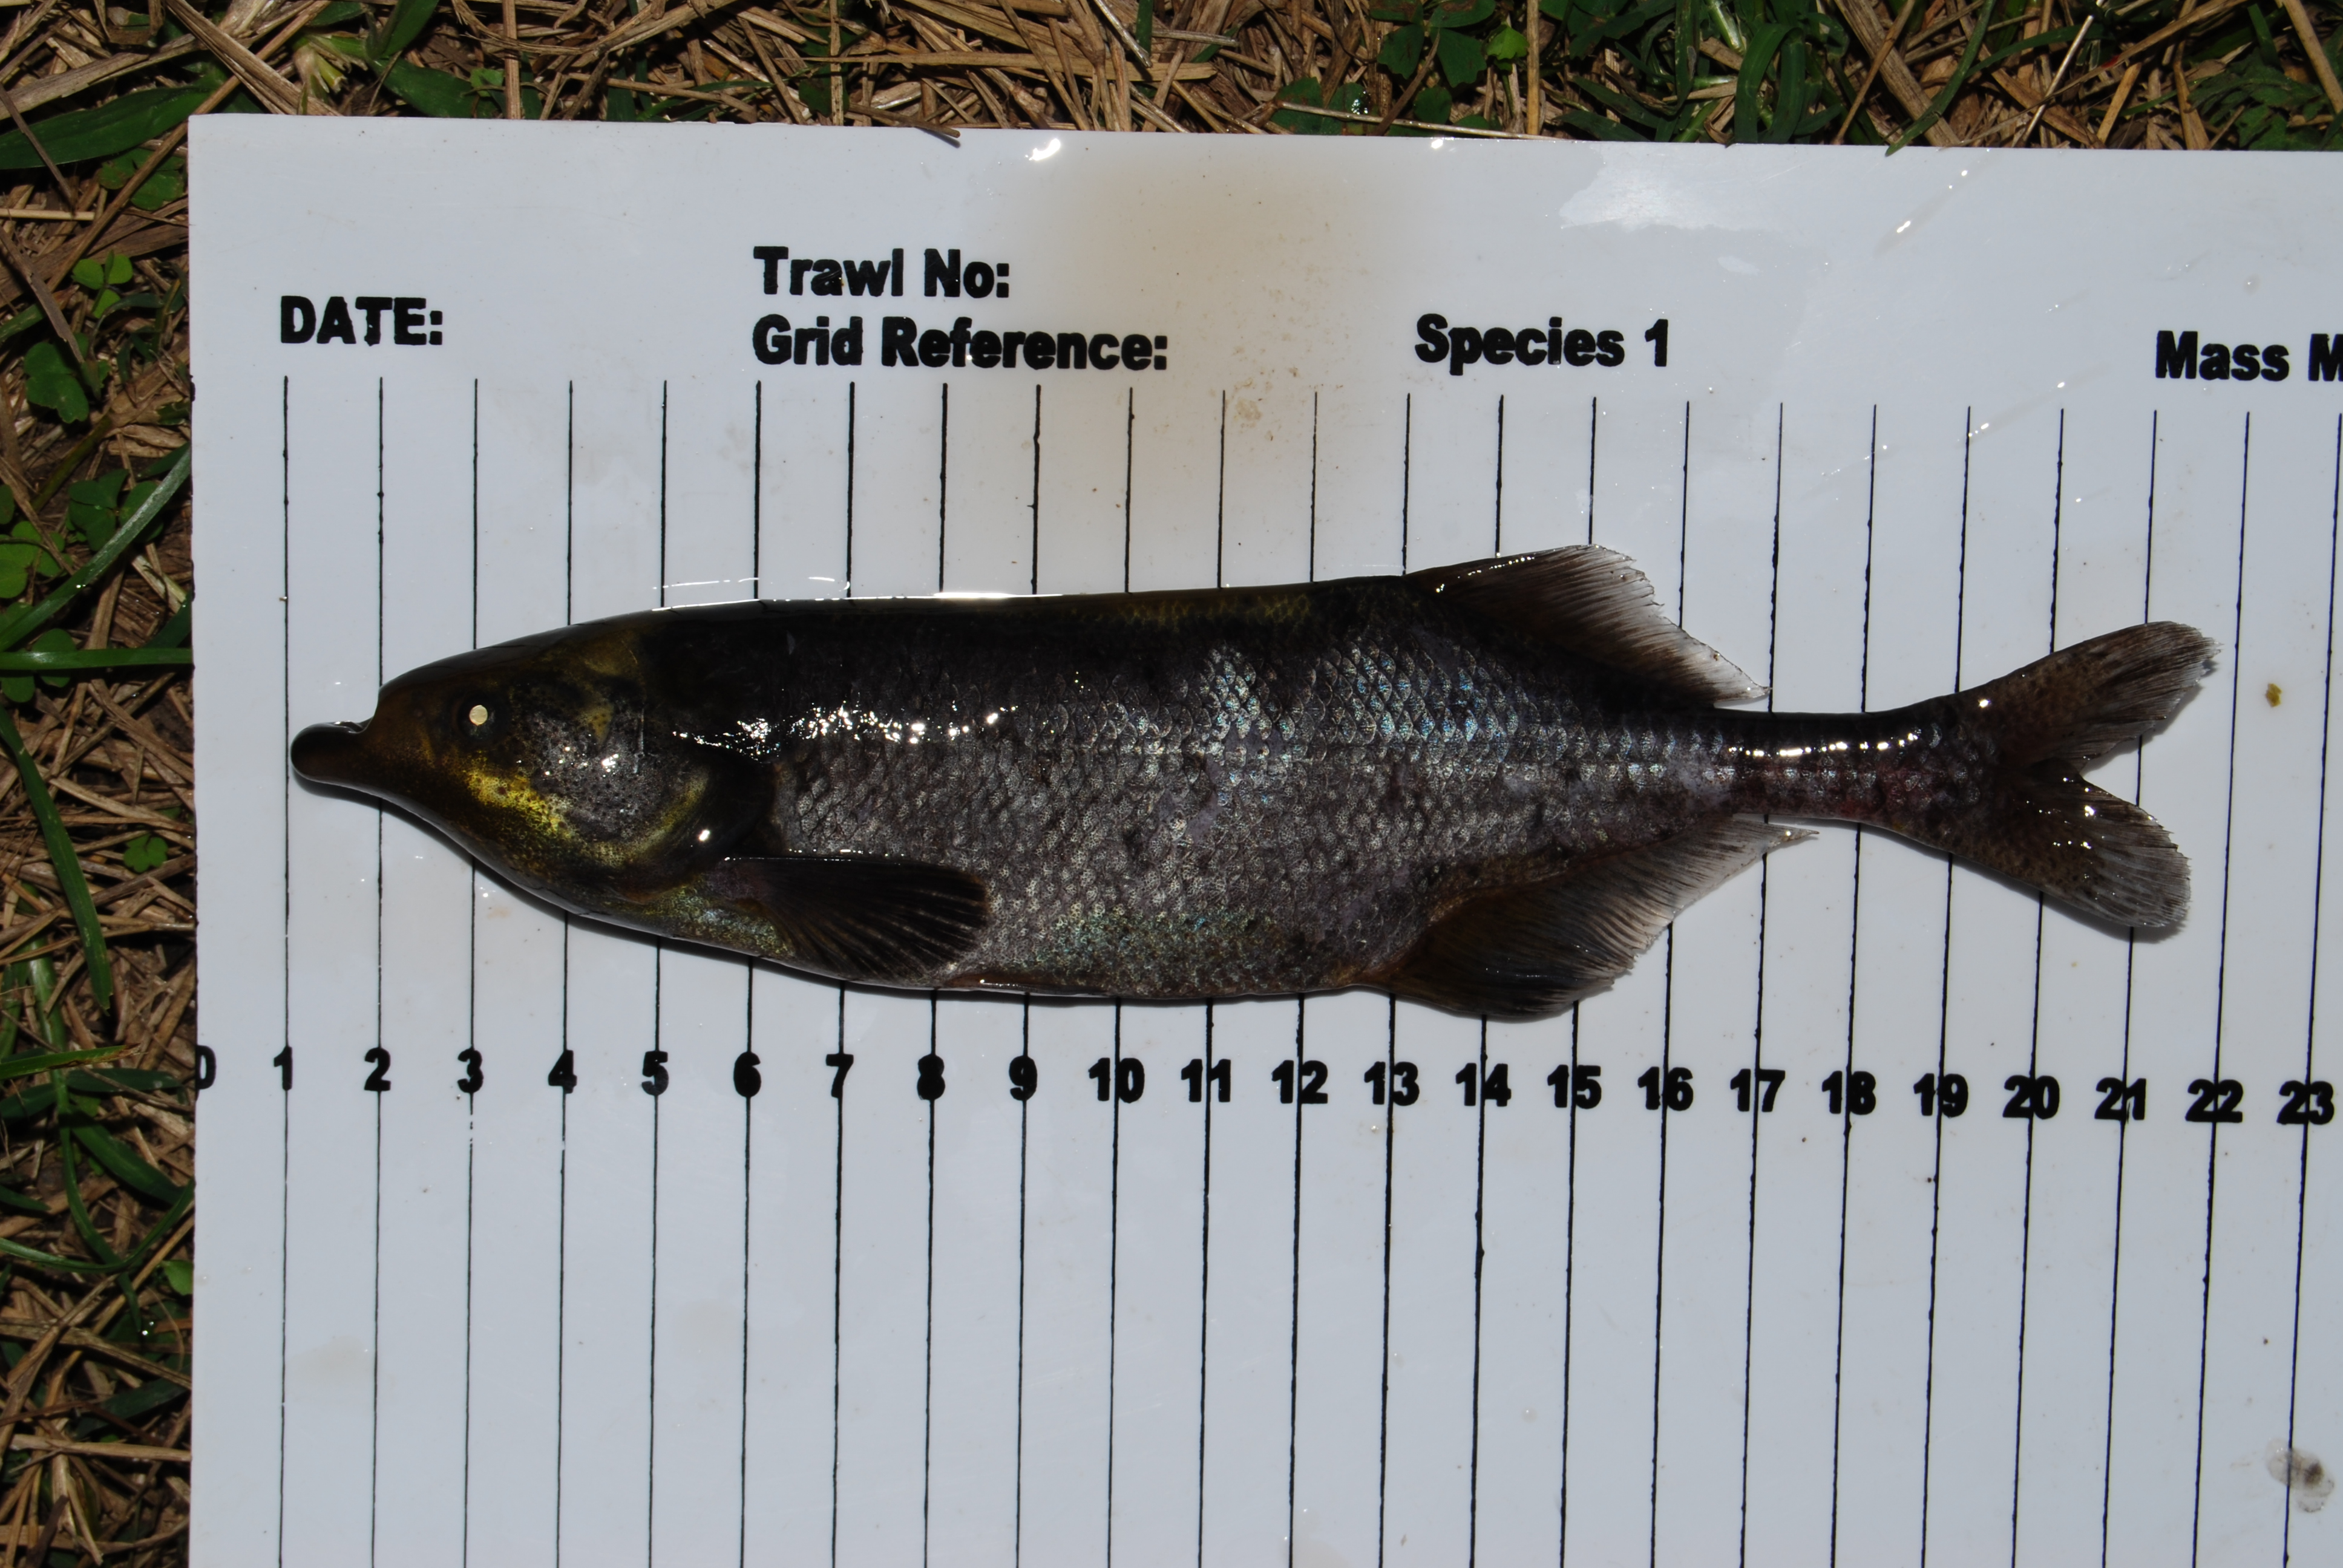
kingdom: Animalia
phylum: Chordata
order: Osteoglossiformes
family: Mormyridae
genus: Marcusenius
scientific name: Marcusenius
